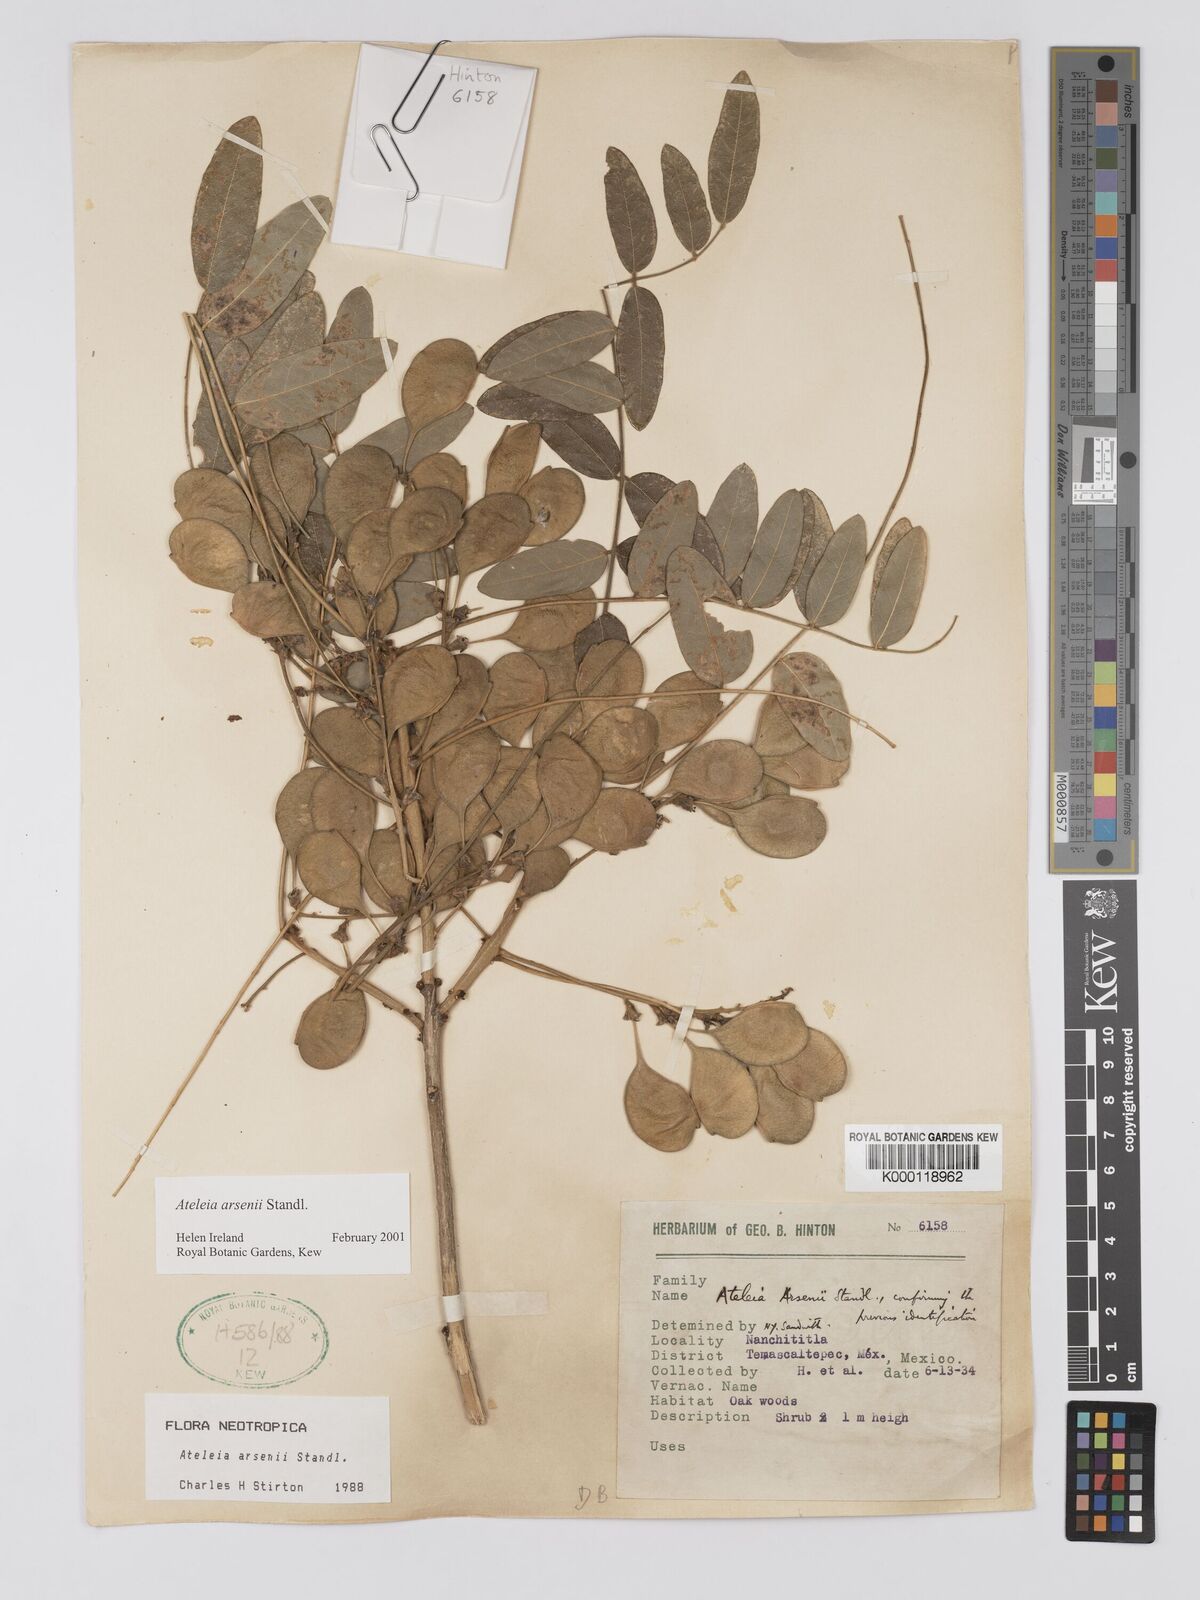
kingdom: Plantae
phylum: Tracheophyta
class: Magnoliopsida
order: Fabales
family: Fabaceae
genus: Ateleia
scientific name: Ateleia arsenii
